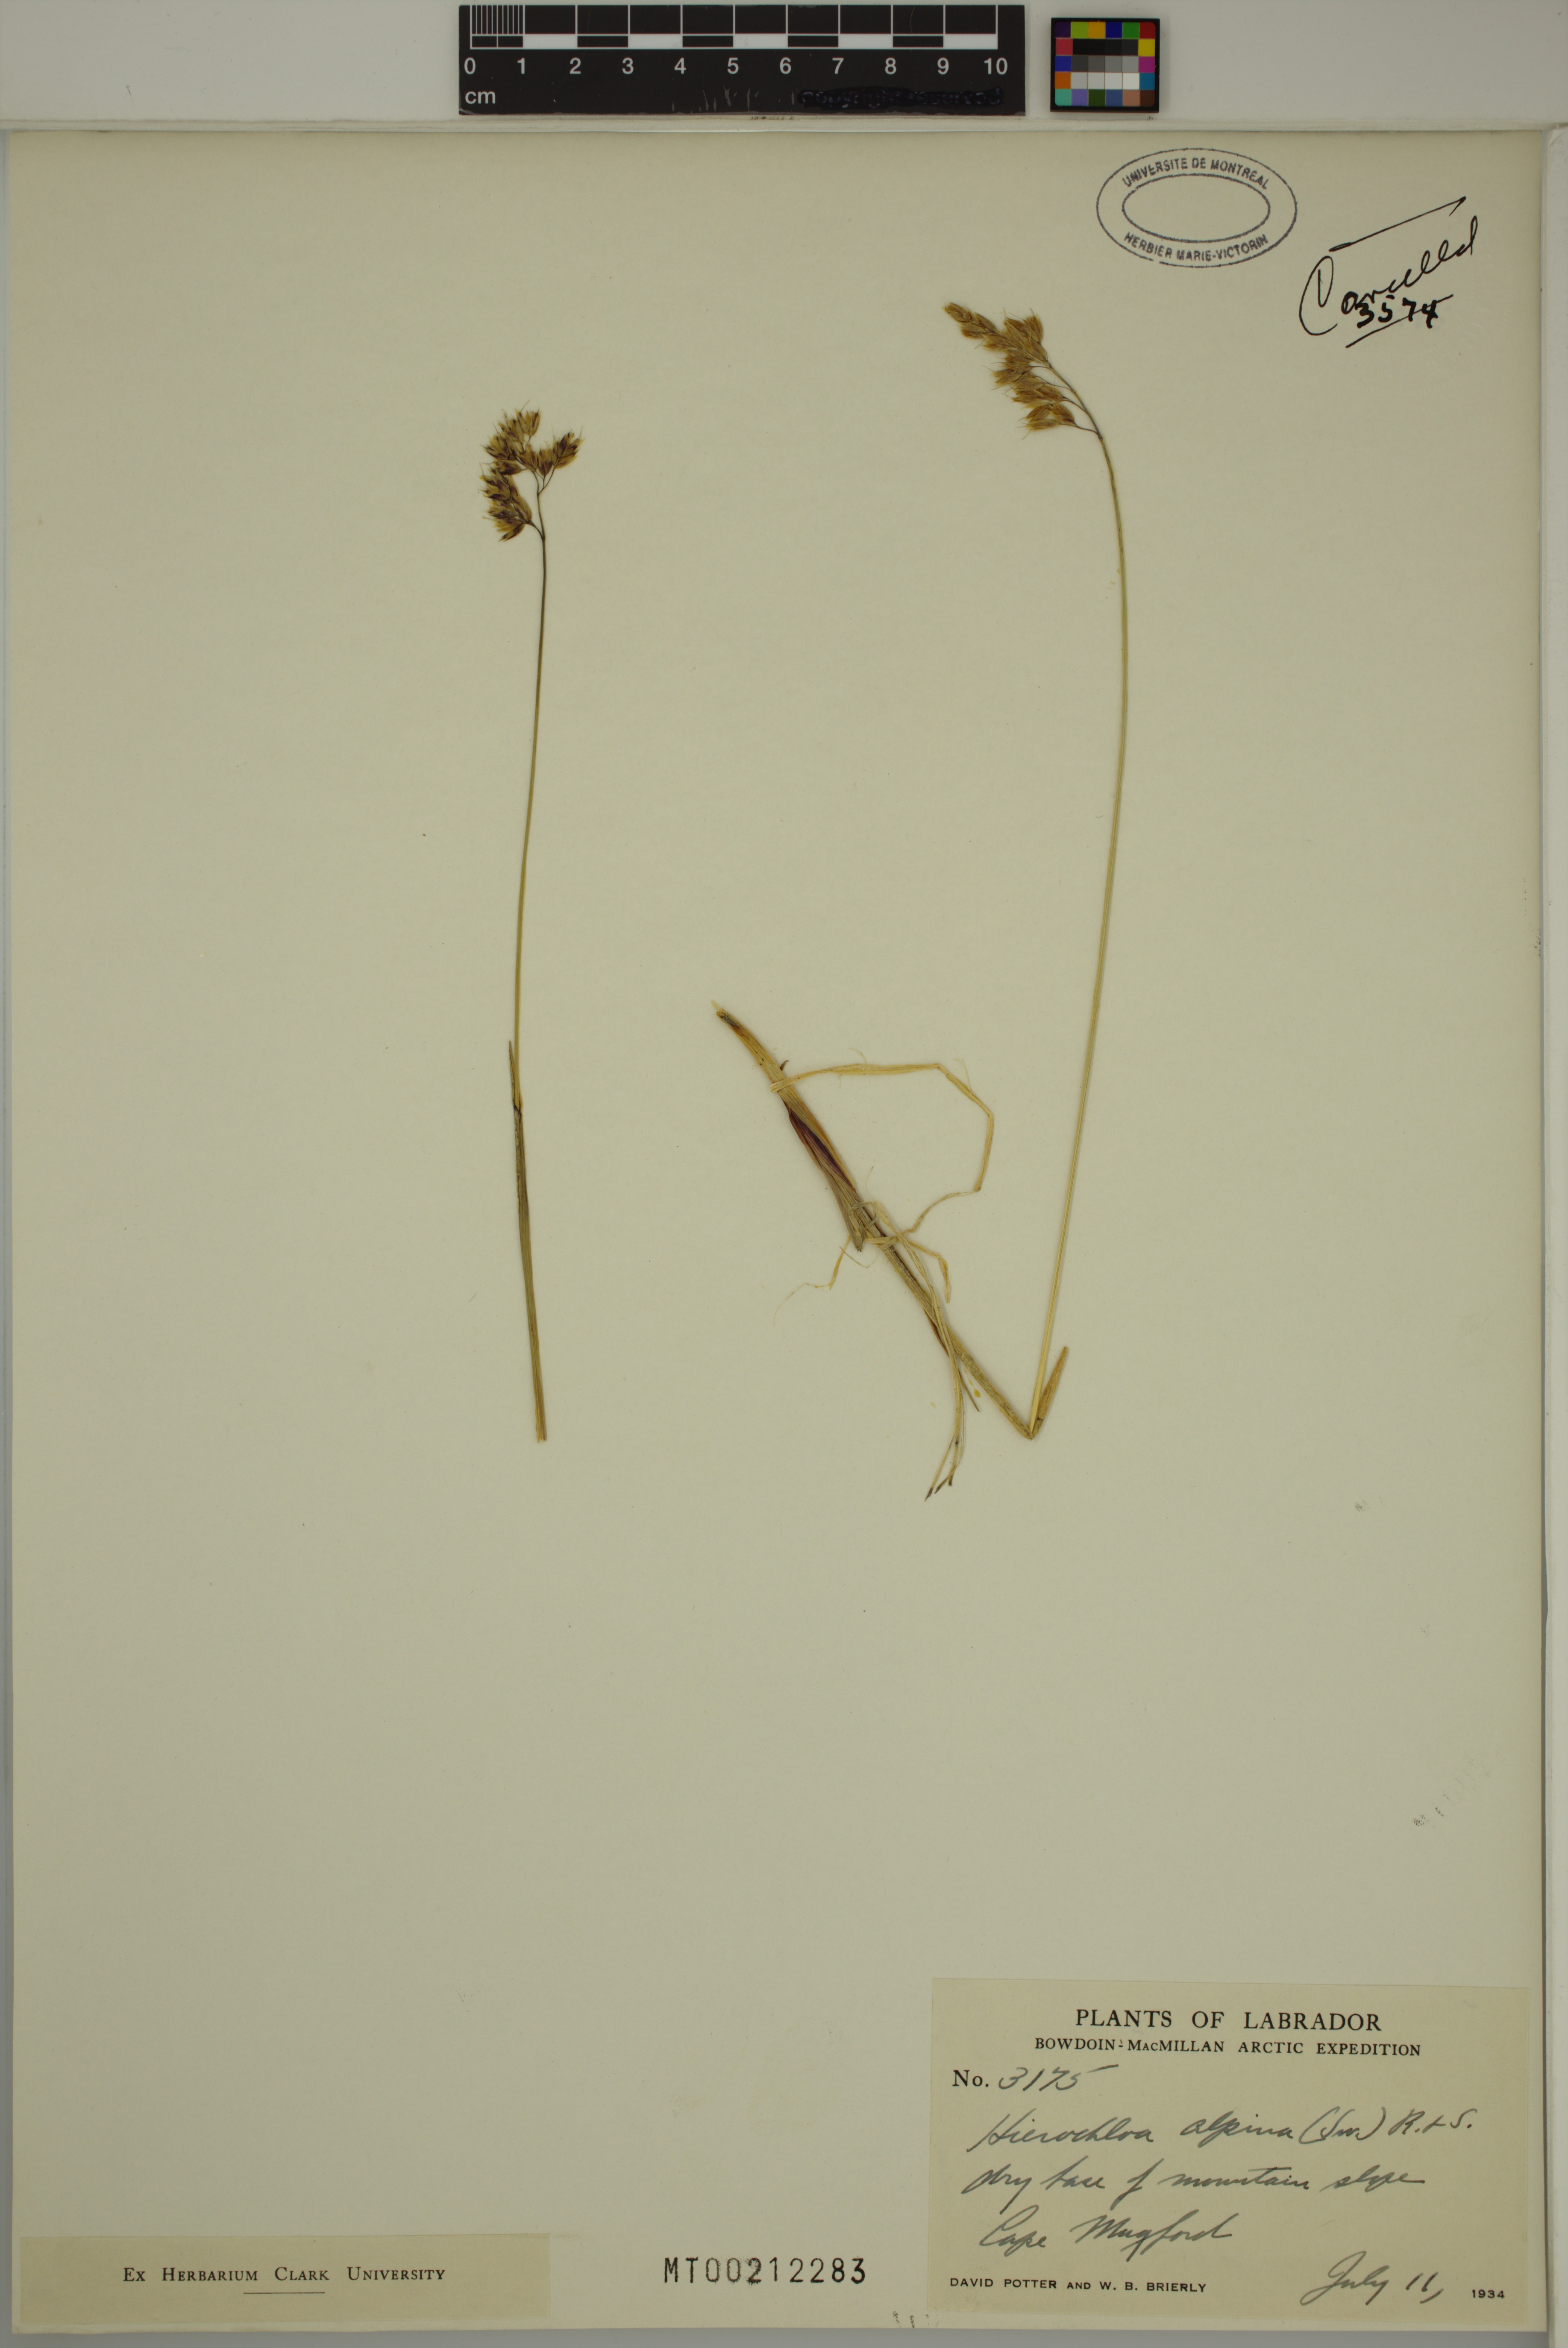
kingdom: Plantae
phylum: Tracheophyta
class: Liliopsida
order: Poales
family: Poaceae
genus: Anthoxanthum
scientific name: Anthoxanthum monticola
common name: Alpine sweetgrass
